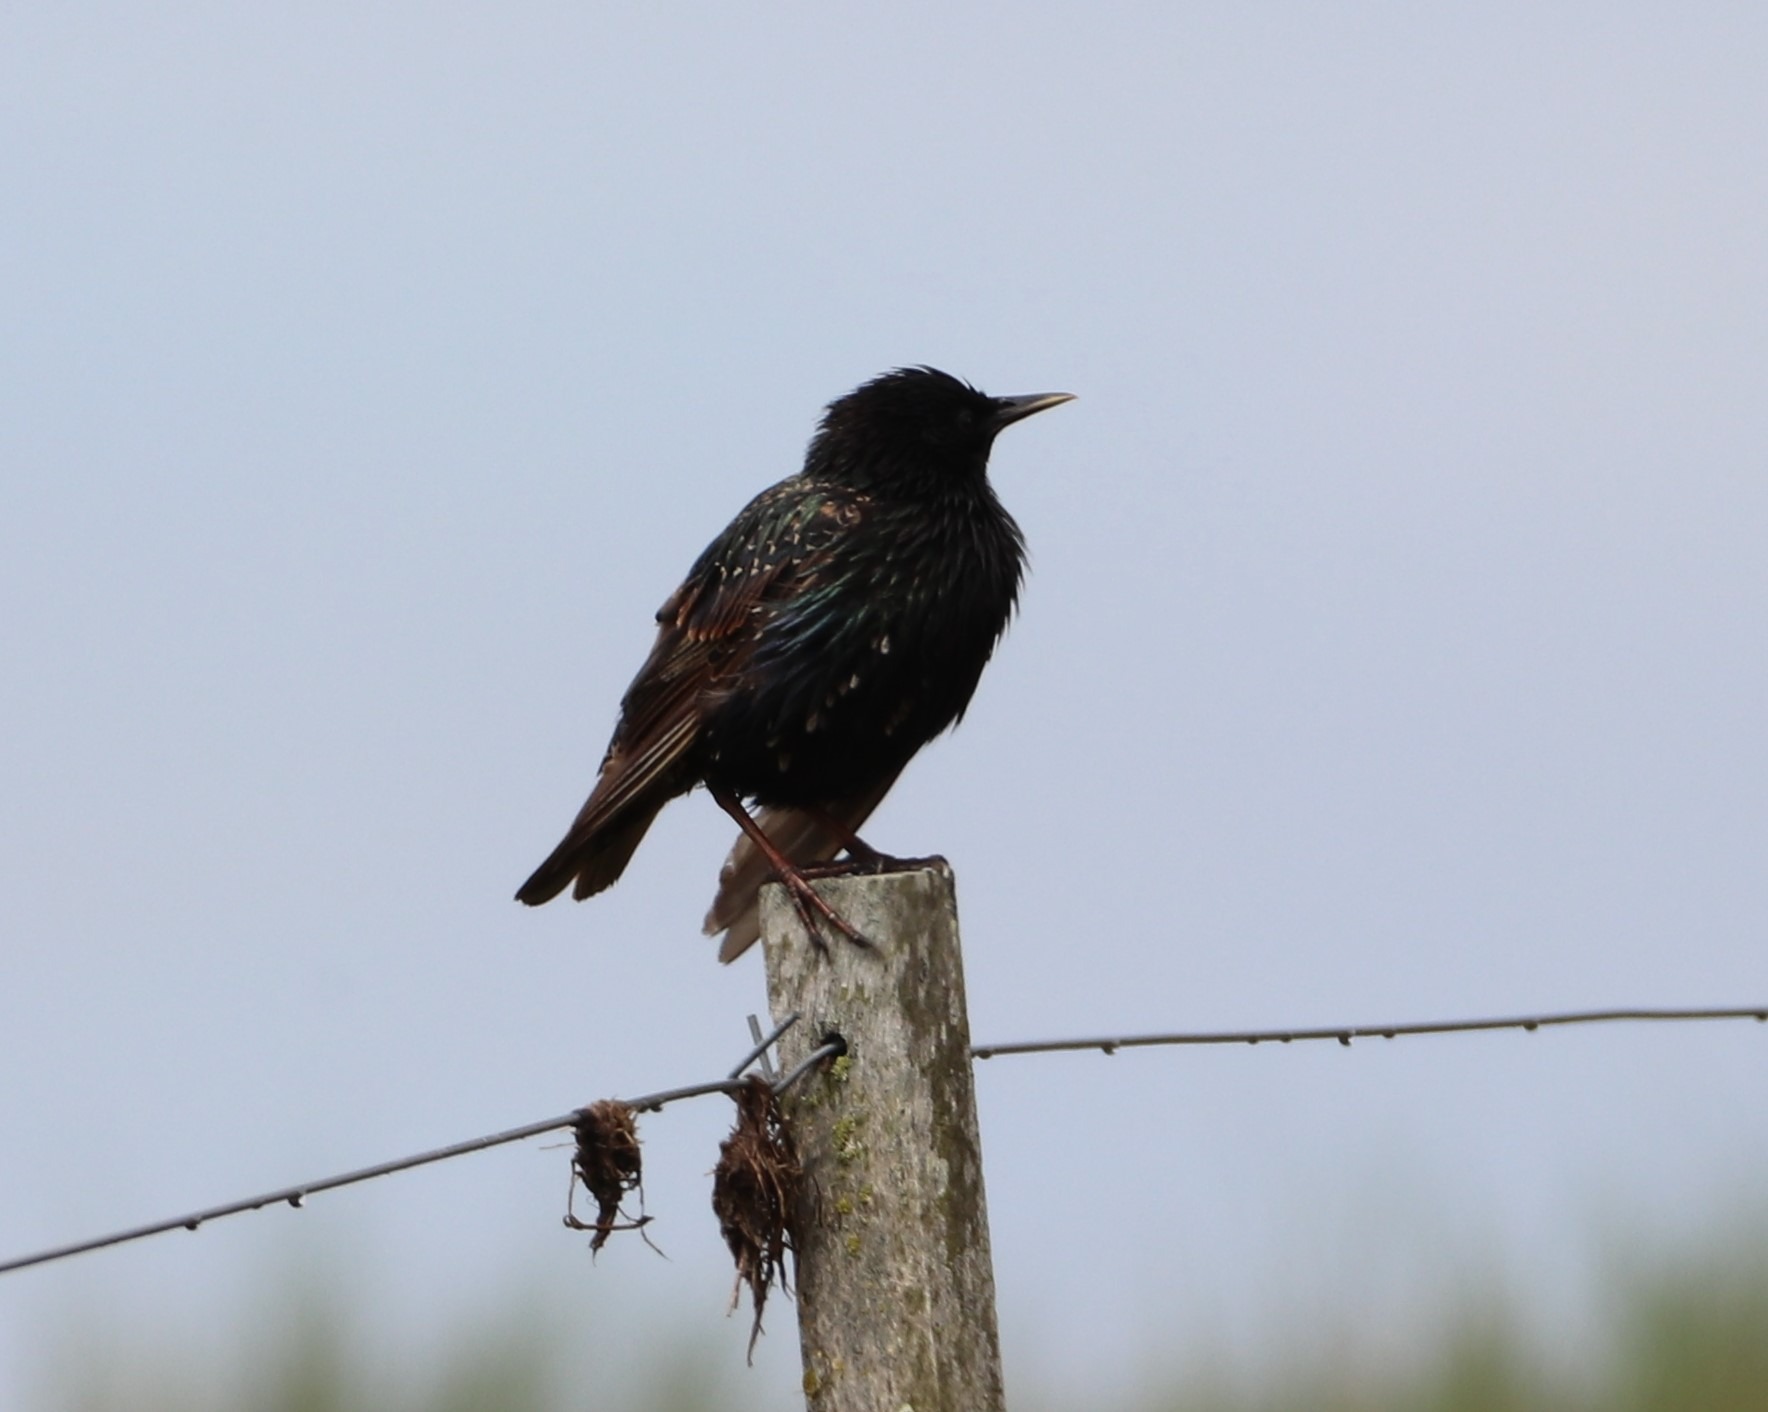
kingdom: Animalia
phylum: Chordata
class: Aves
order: Passeriformes
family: Sturnidae
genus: Sturnus
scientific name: Sturnus vulgaris
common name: Stær
